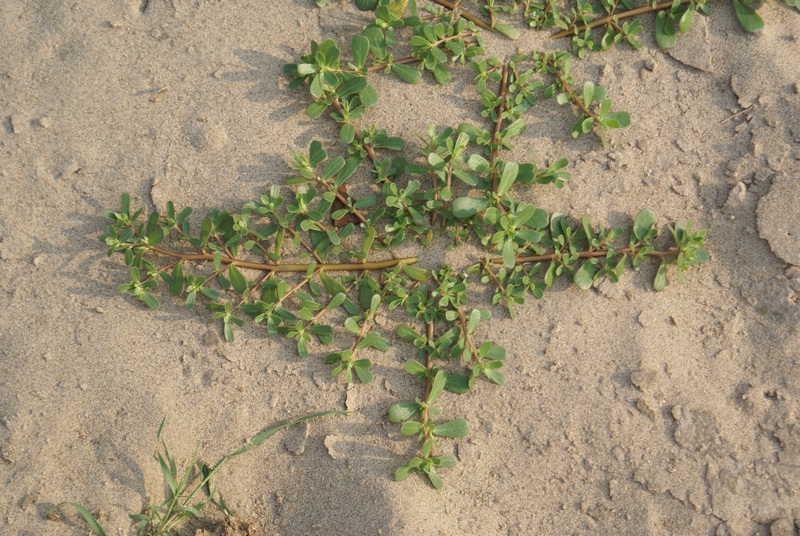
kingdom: Plantae
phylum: Tracheophyta
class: Magnoliopsida
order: Caryophyllales
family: Portulacaceae
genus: Portulaca
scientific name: Portulaca
